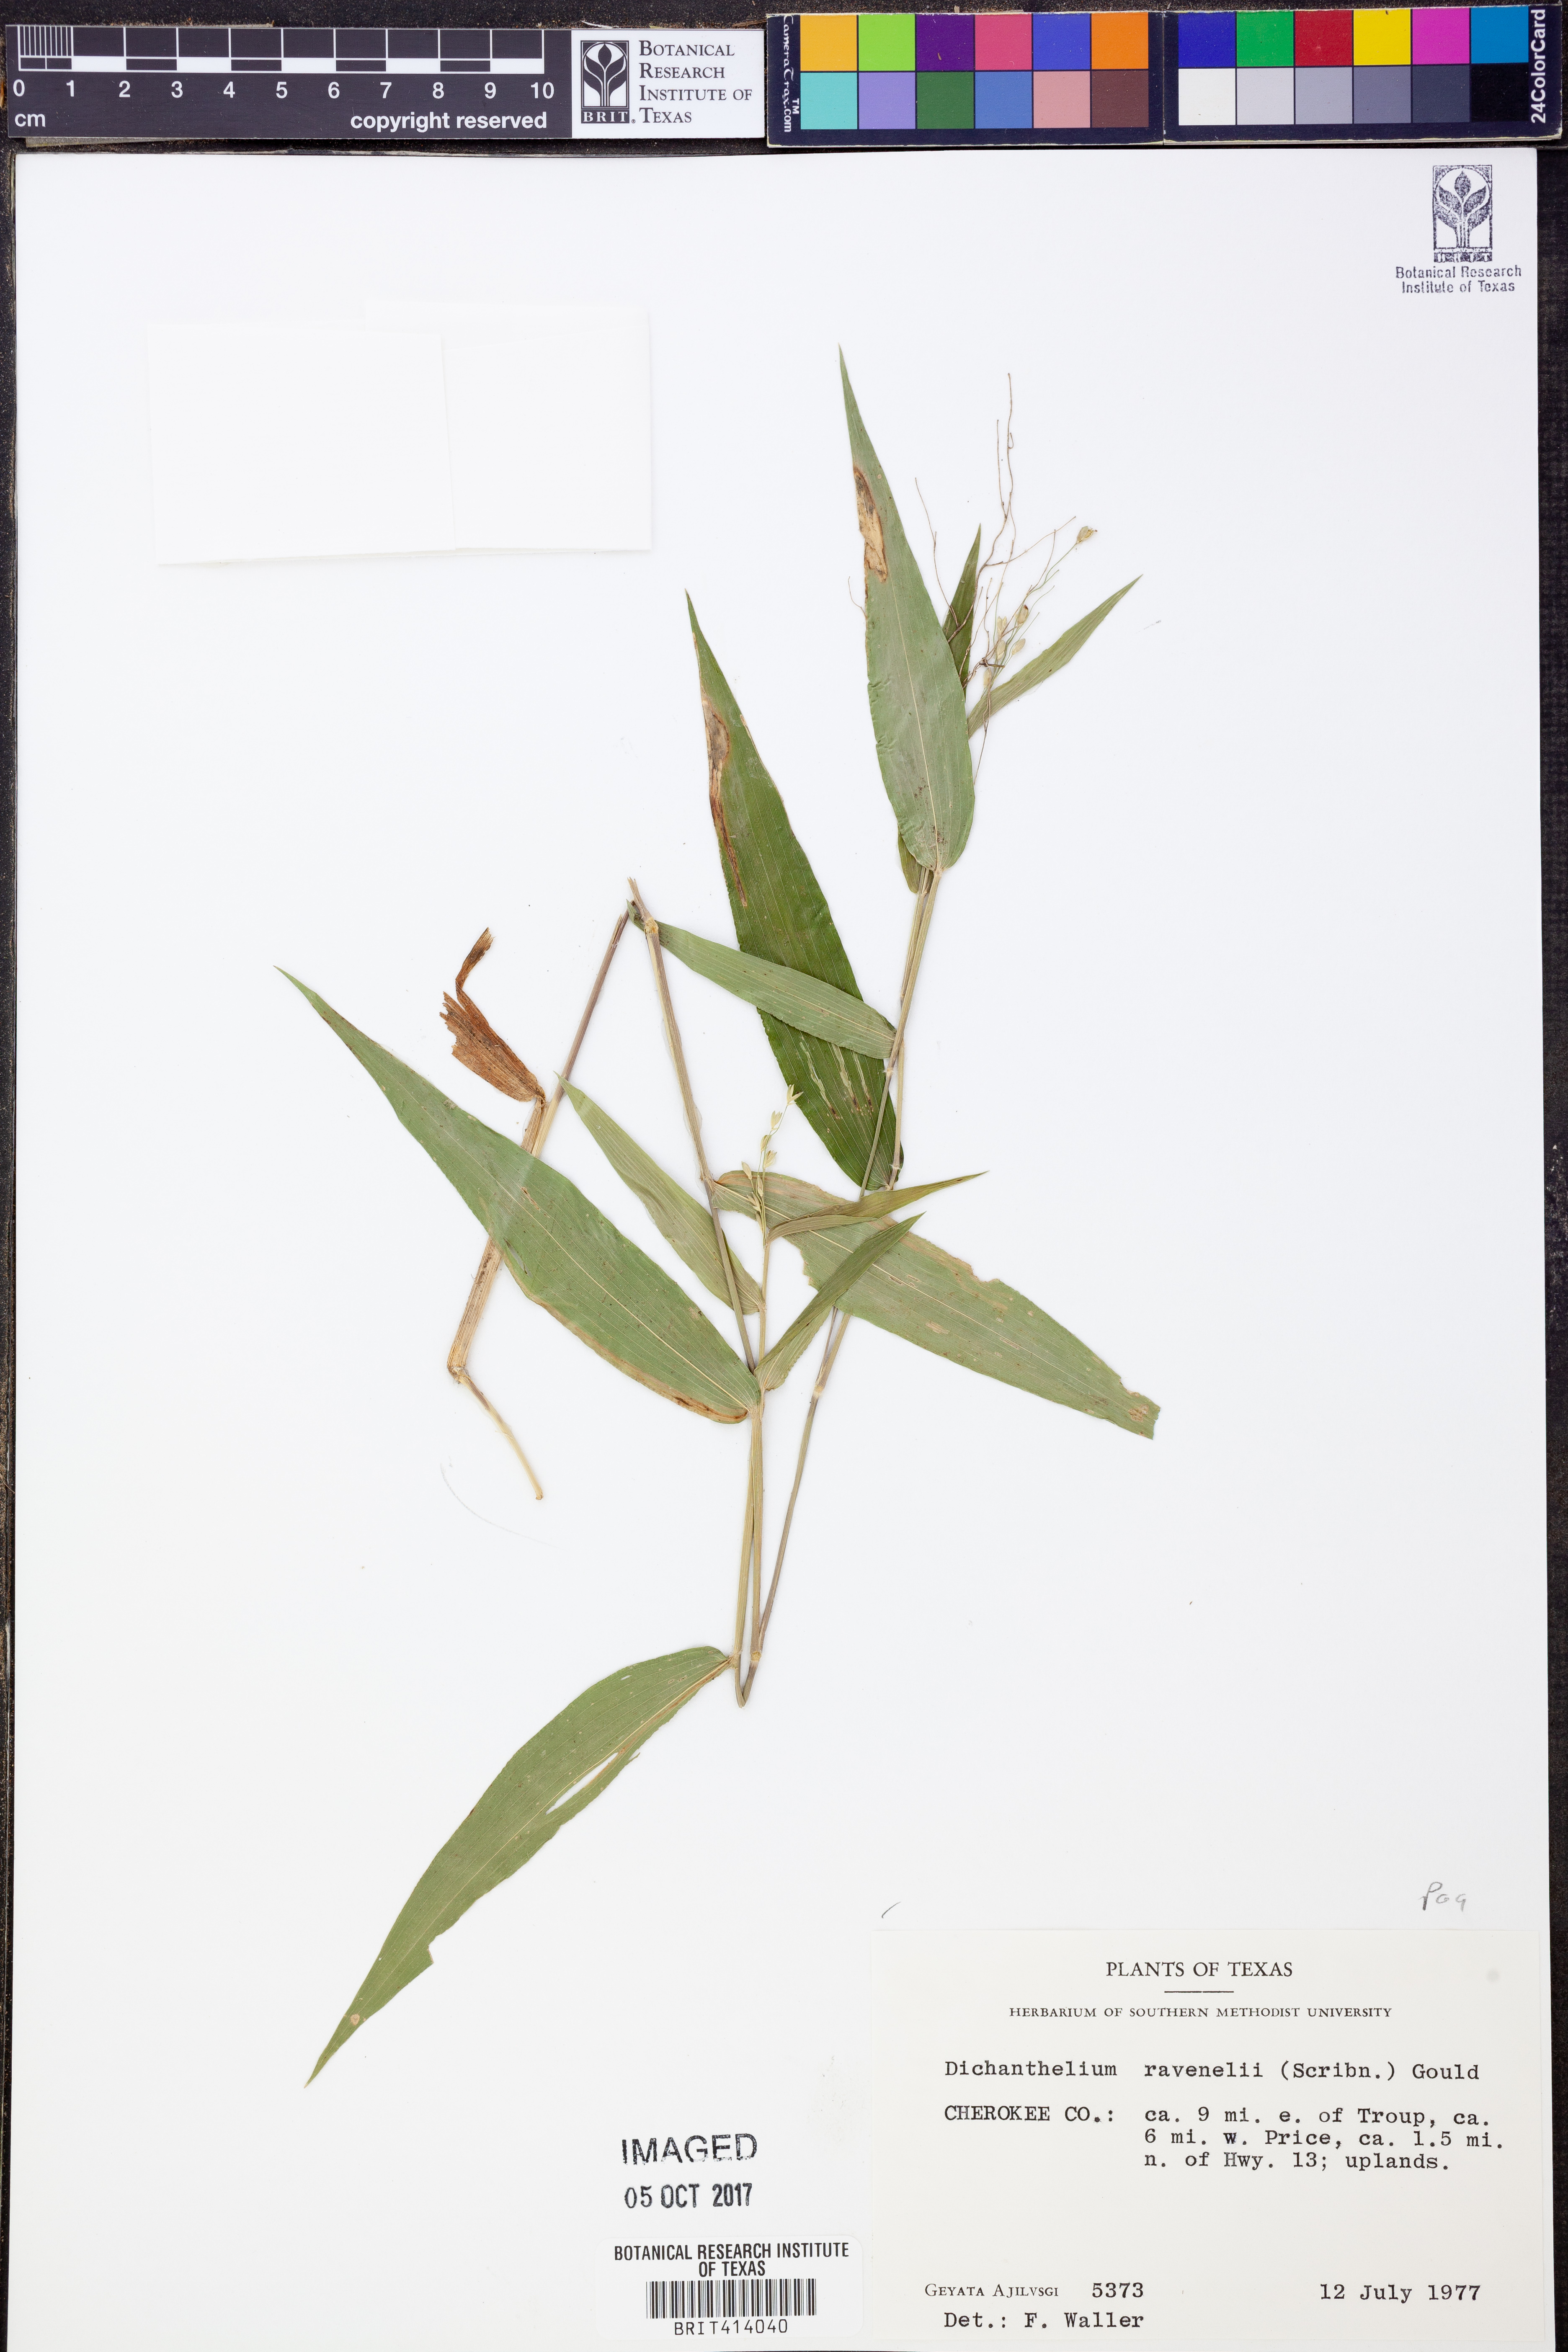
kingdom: Plantae
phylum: Tracheophyta
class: Liliopsida
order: Poales
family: Poaceae
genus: Dichanthelium
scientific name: Dichanthelium ravenelii
